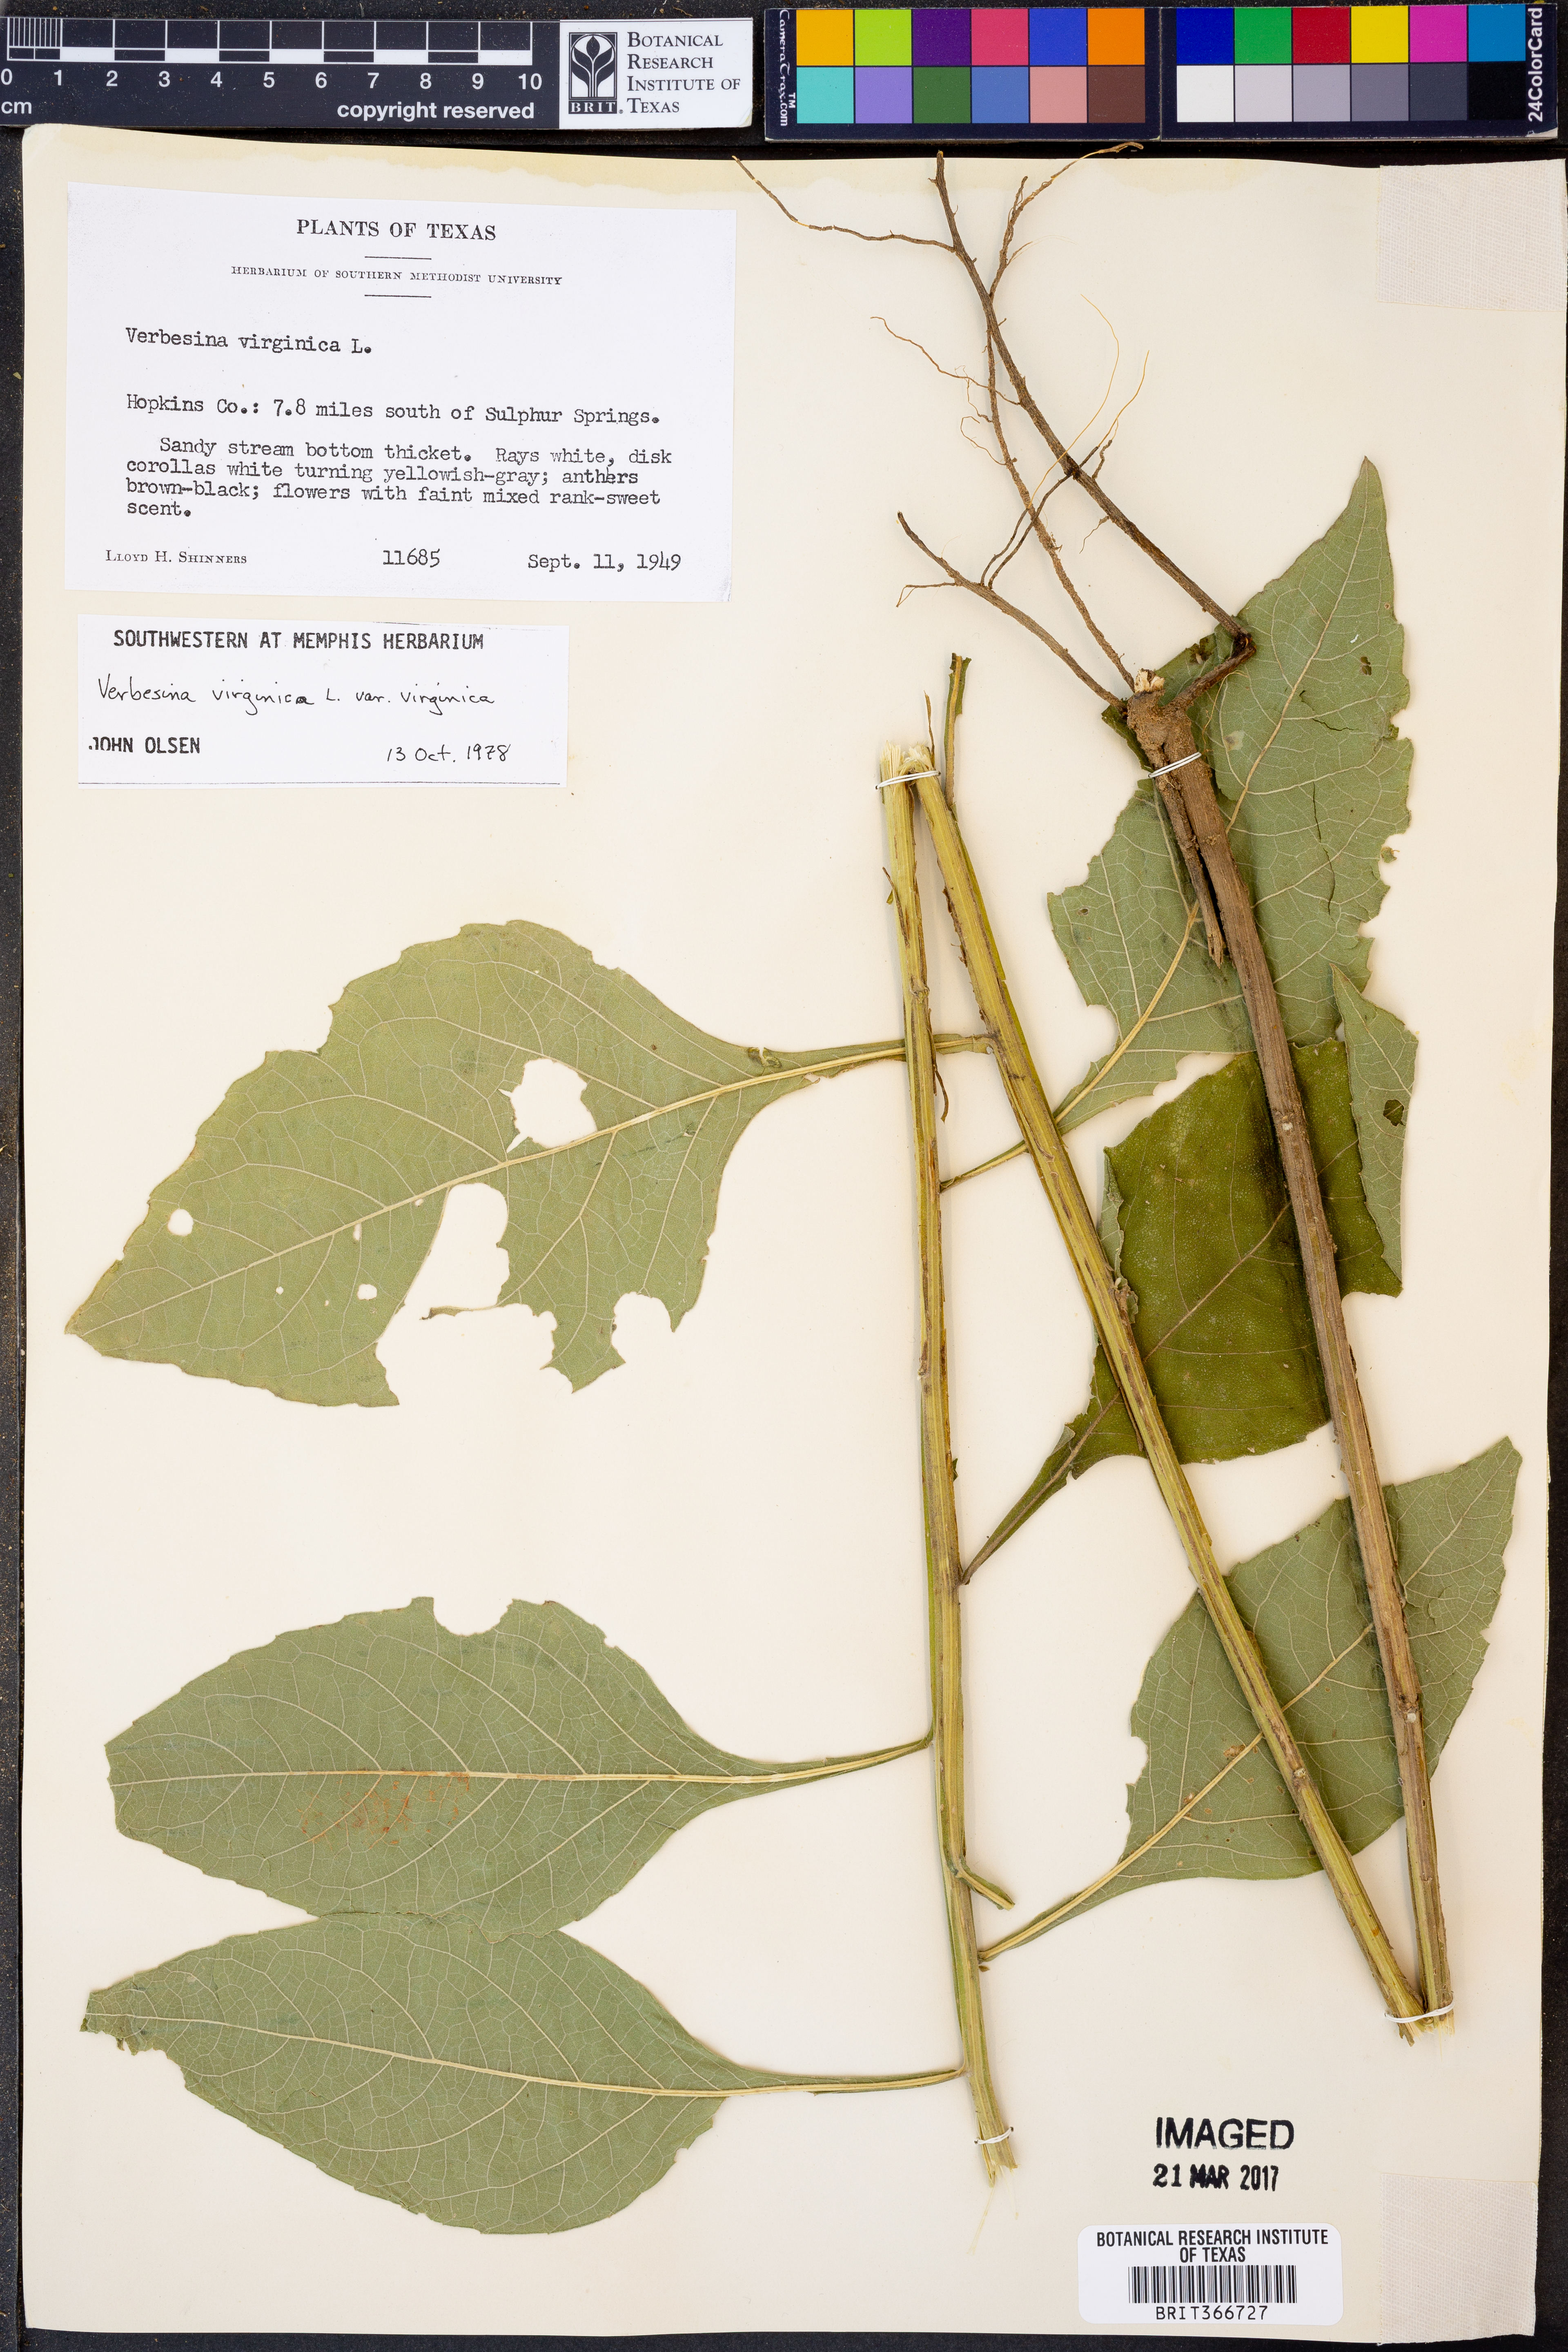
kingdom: Plantae
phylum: Tracheophyta
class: Magnoliopsida
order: Asterales
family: Asteraceae
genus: Verbesina
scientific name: Verbesina virginica
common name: Frostweed
